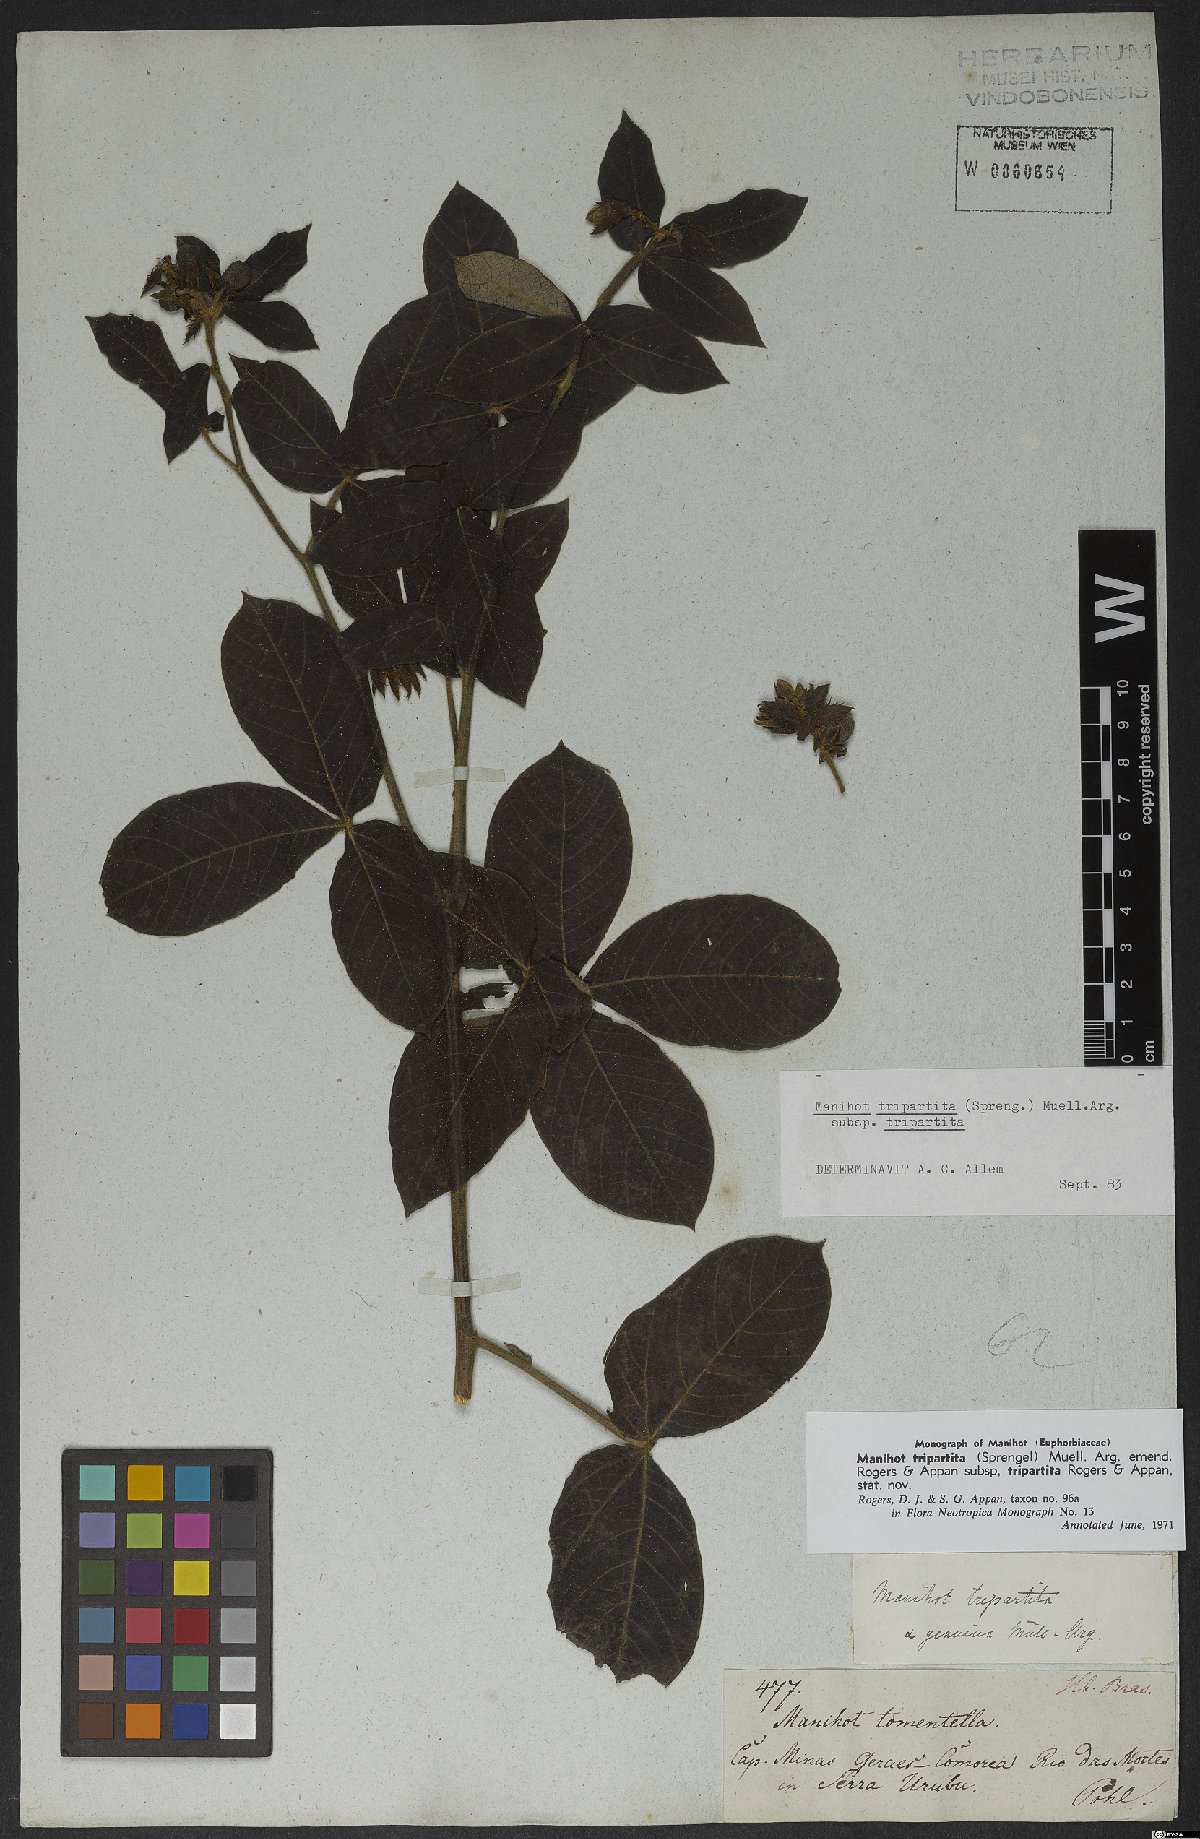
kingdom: Plantae
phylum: Tracheophyta
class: Magnoliopsida
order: Malpighiales
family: Euphorbiaceae
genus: Manihot
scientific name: Manihot tripartita
